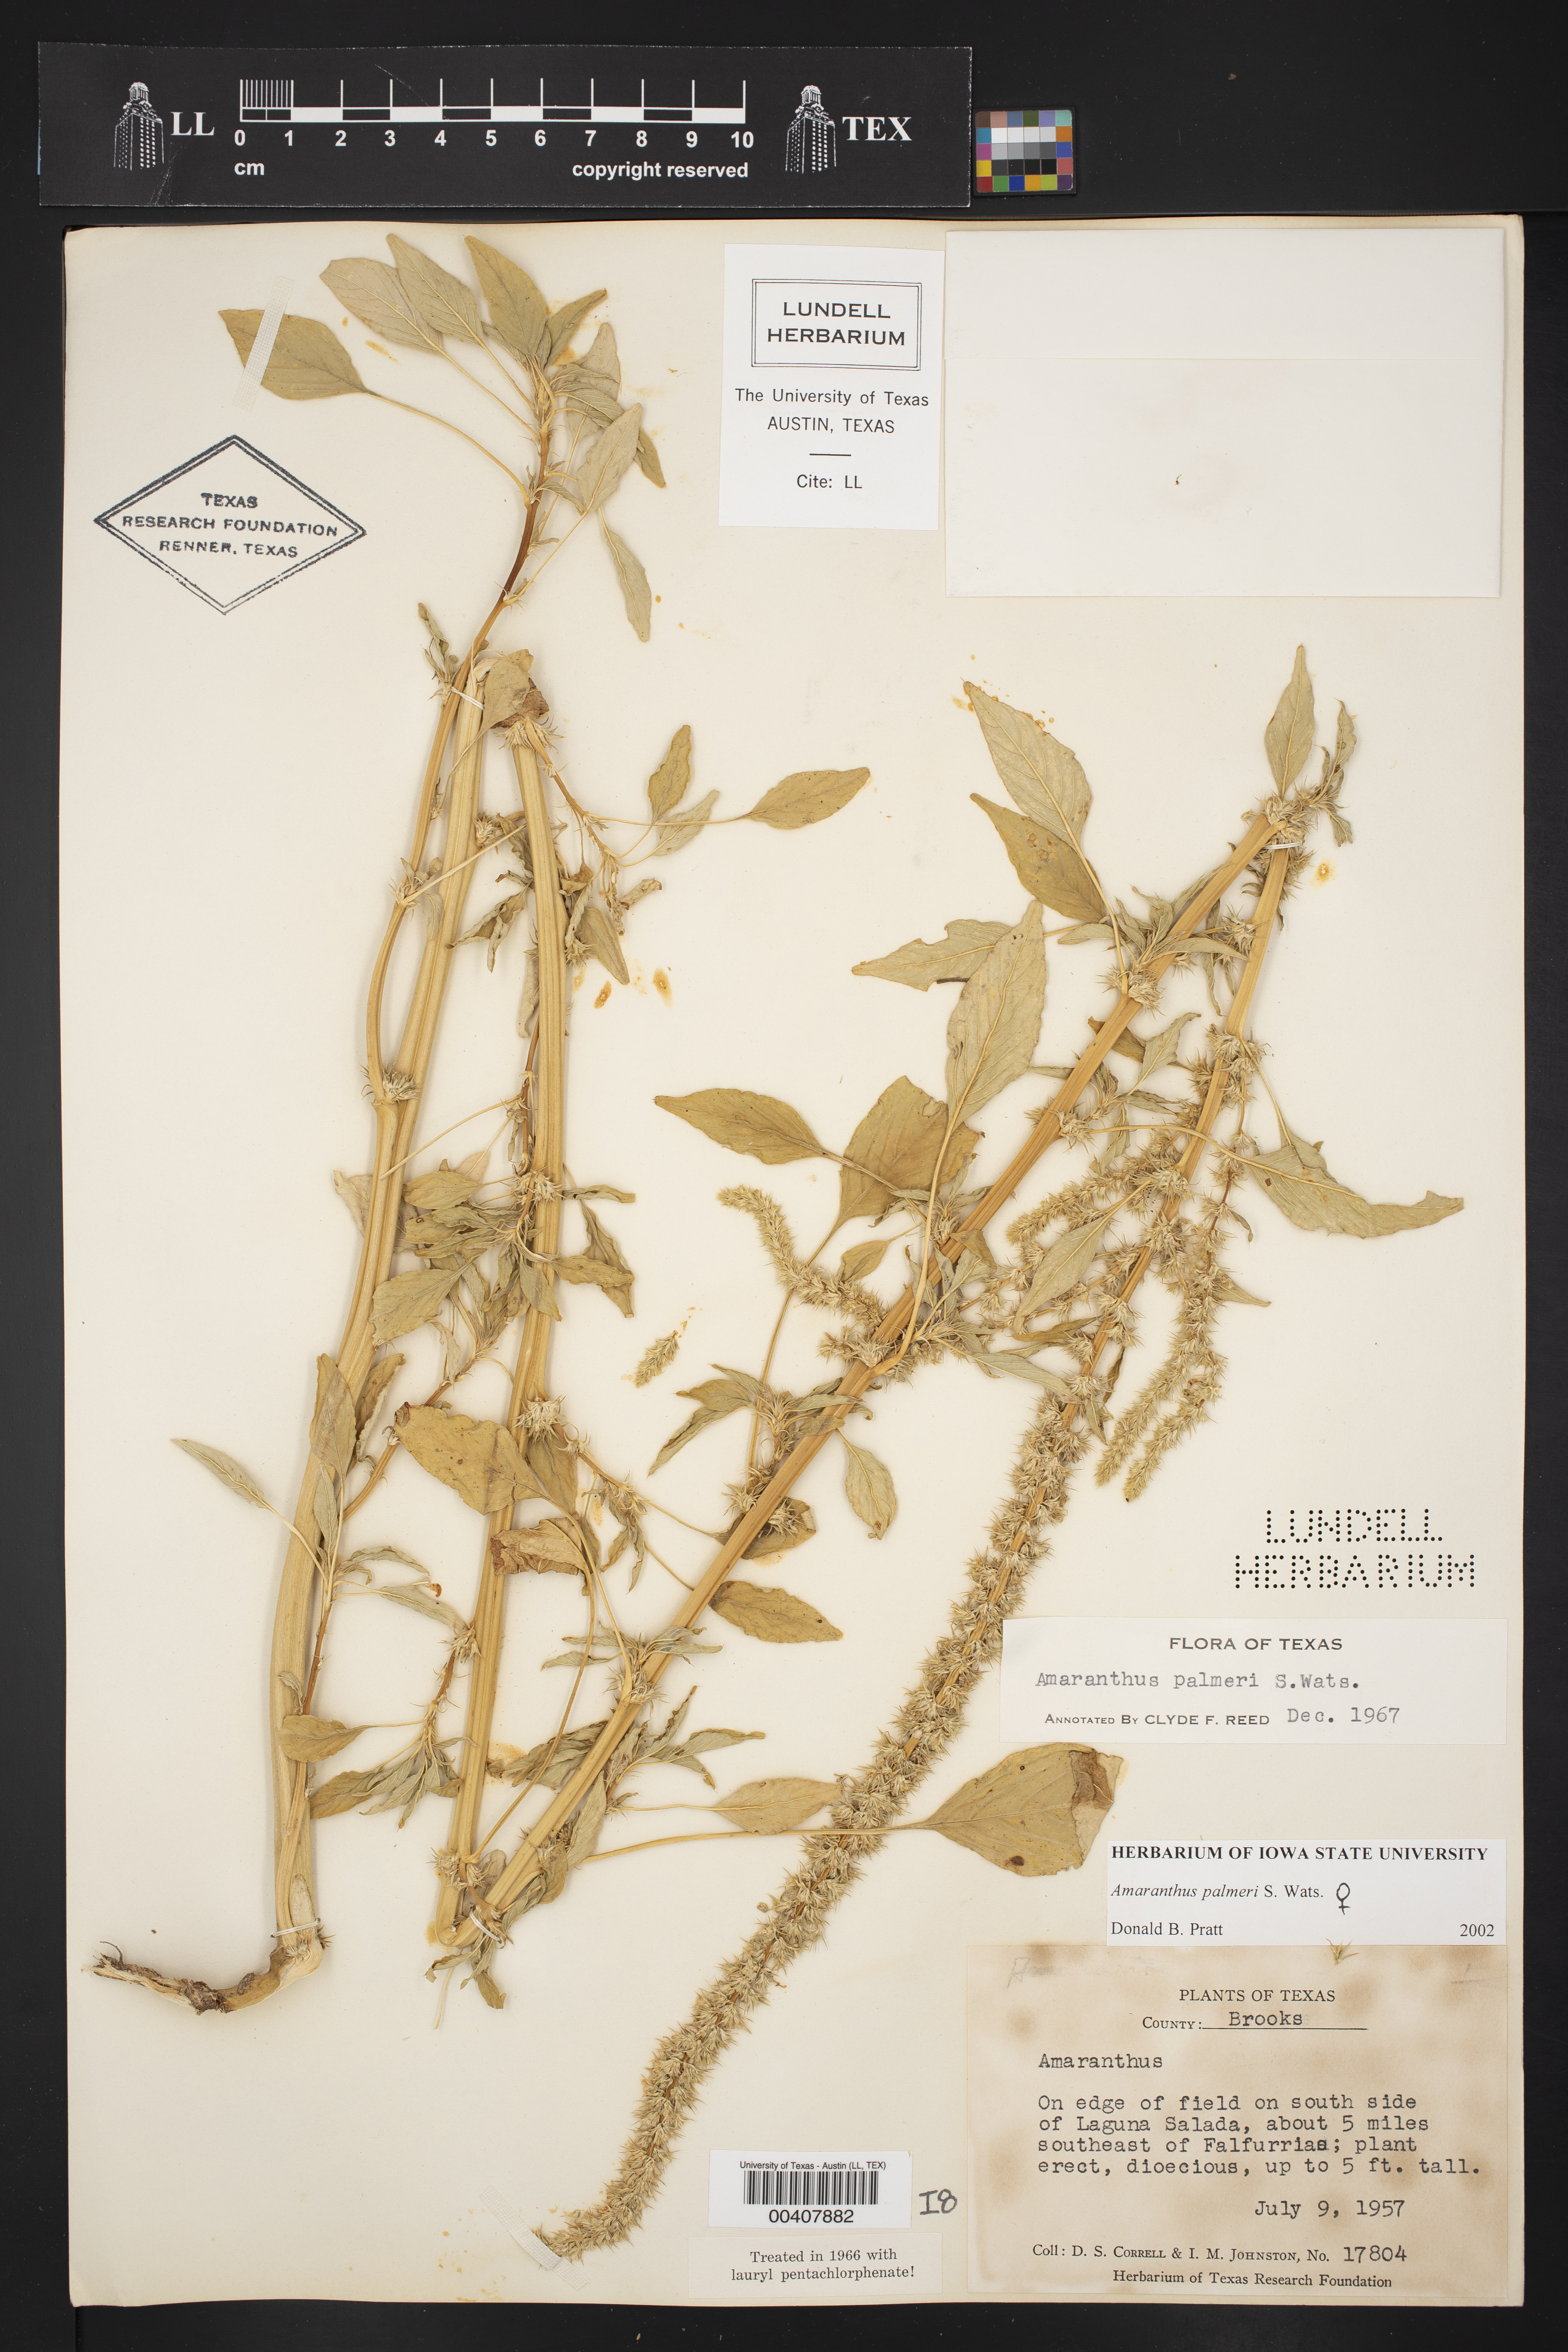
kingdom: Plantae
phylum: Tracheophyta
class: Magnoliopsida
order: Caryophyllales
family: Amaranthaceae
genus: Amaranthus
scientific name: Amaranthus palmeri
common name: Dioecious amaranth
